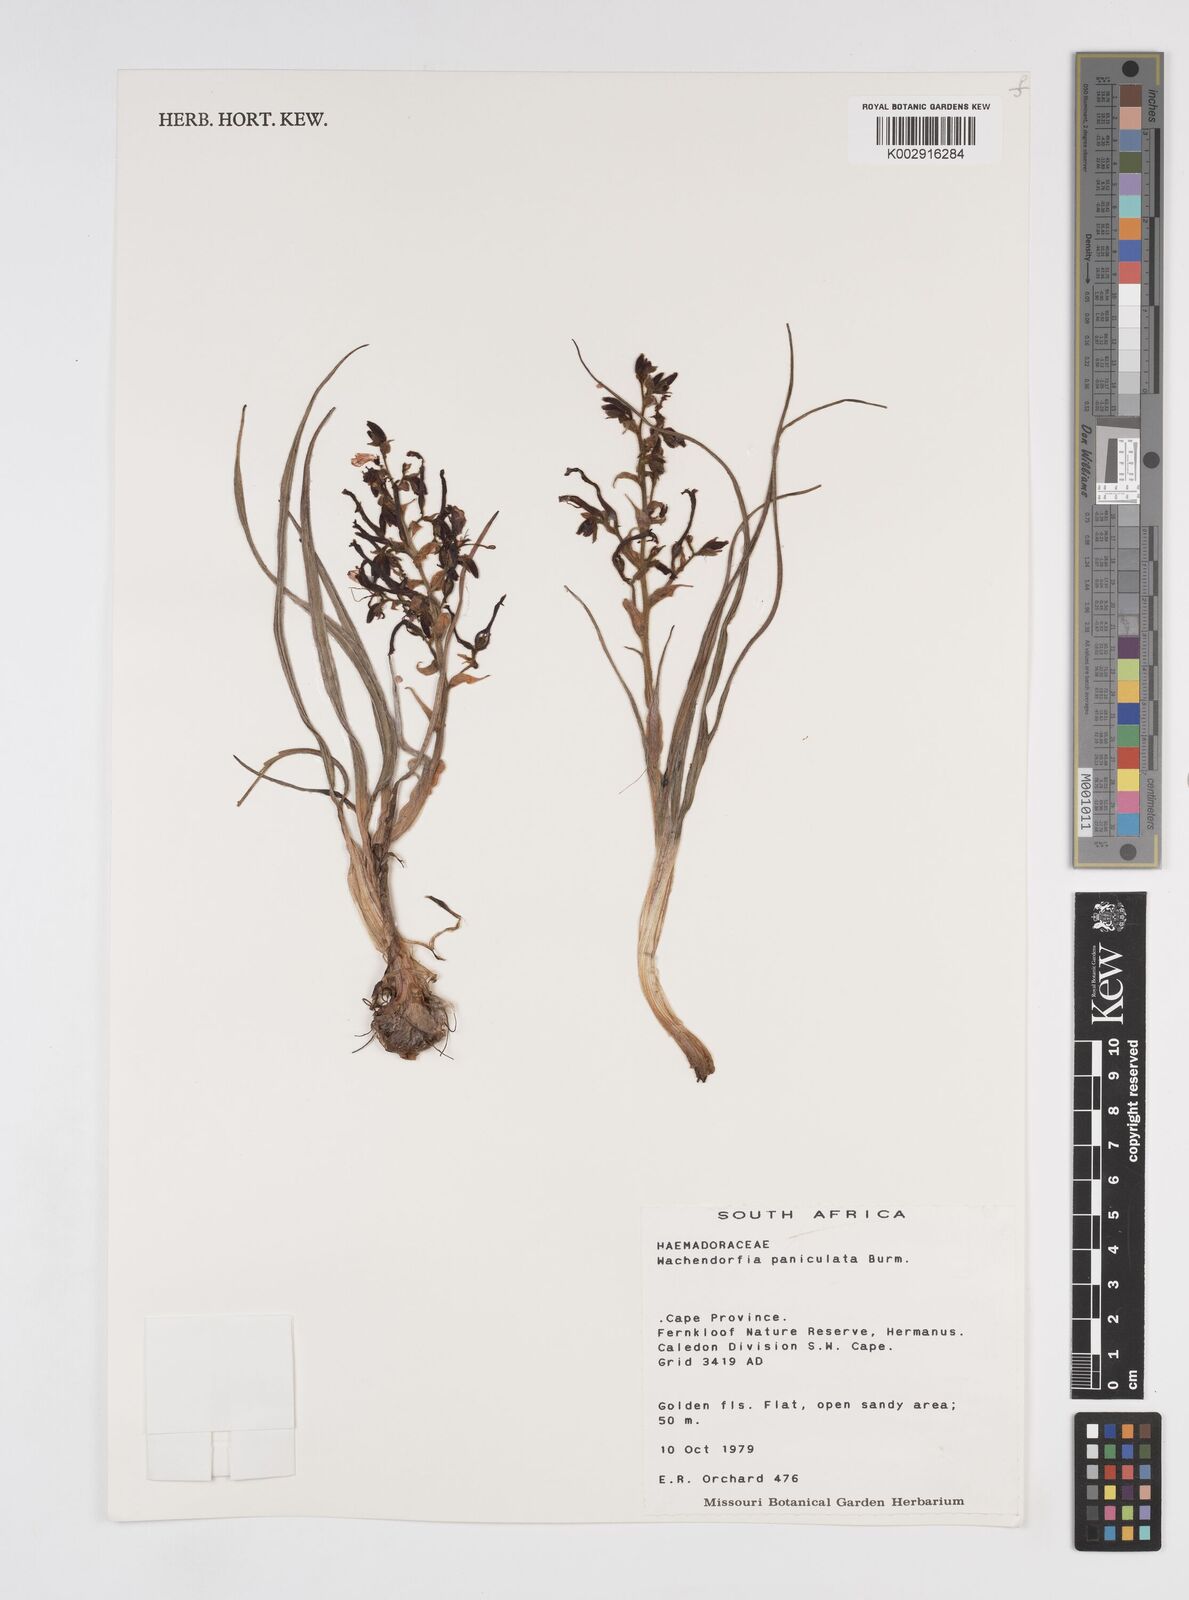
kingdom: Plantae
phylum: Tracheophyta
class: Liliopsida
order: Commelinales
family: Haemodoraceae
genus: Wachendorfia
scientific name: Wachendorfia paniculata
